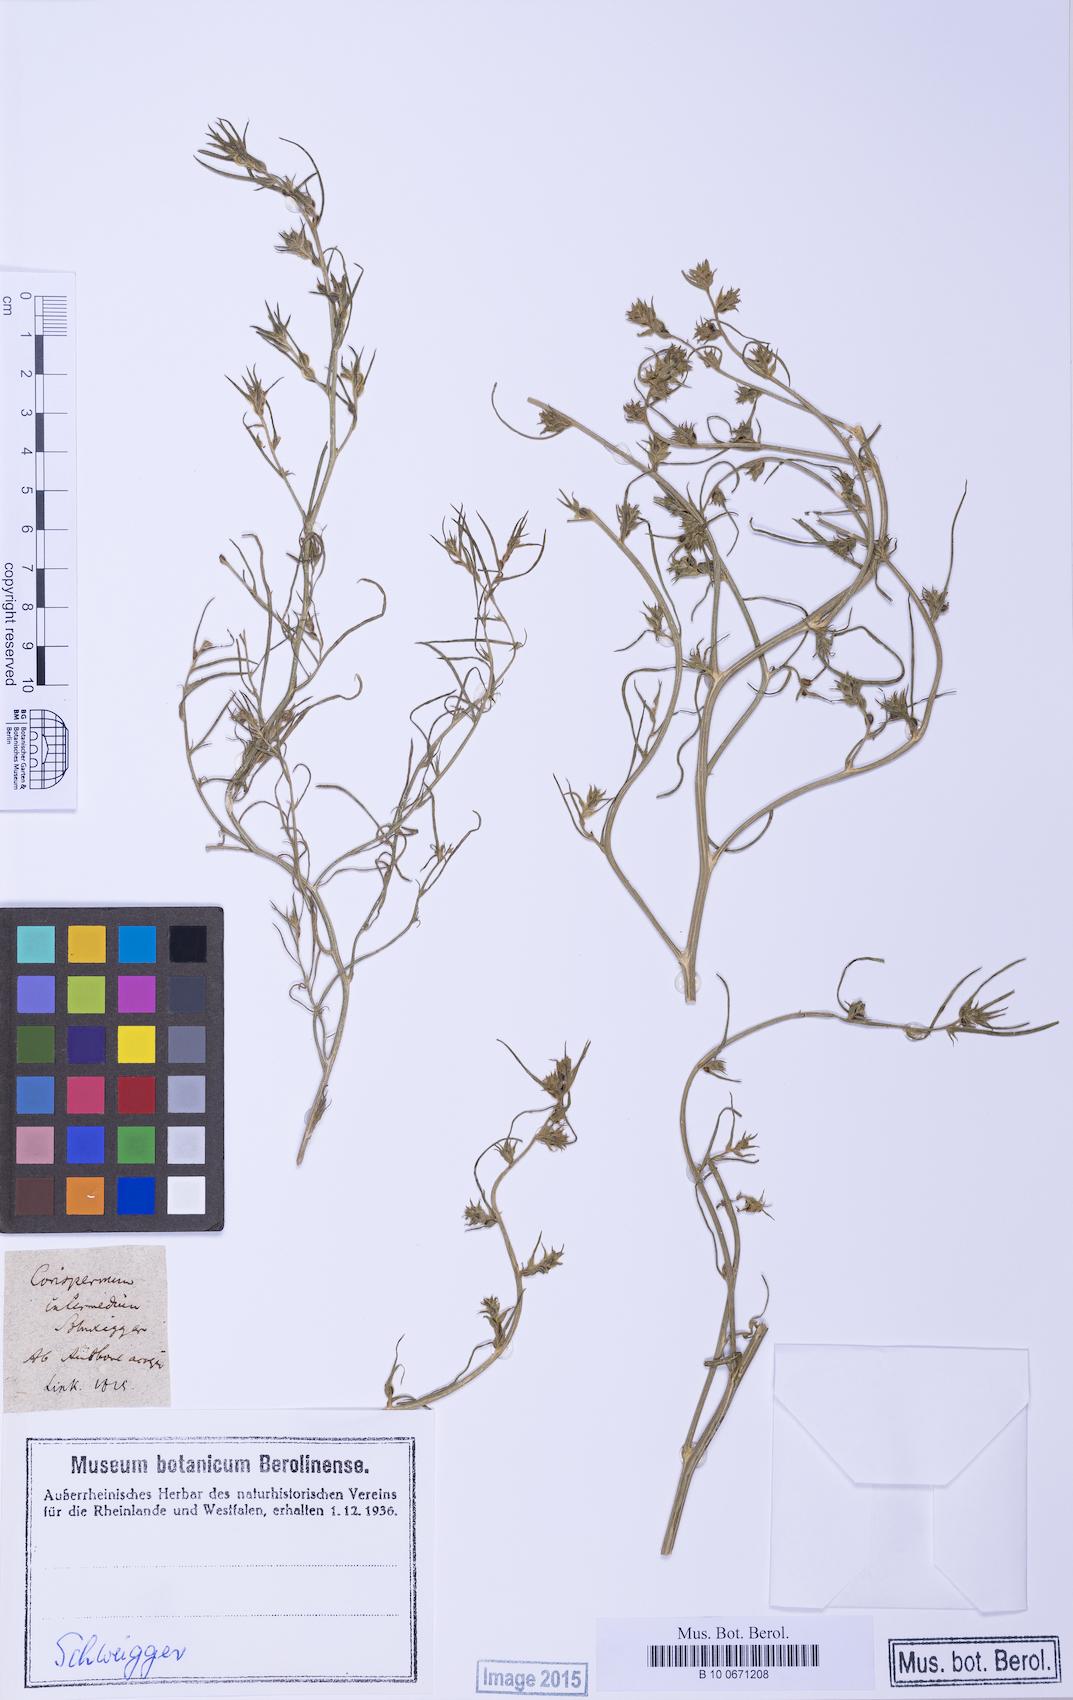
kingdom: Plantae
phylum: Tracheophyta
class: Magnoliopsida
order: Caryophyllales
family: Amaranthaceae
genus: Corispermum
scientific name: Corispermum intermedium
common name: Hyssop-leaved tickseed
